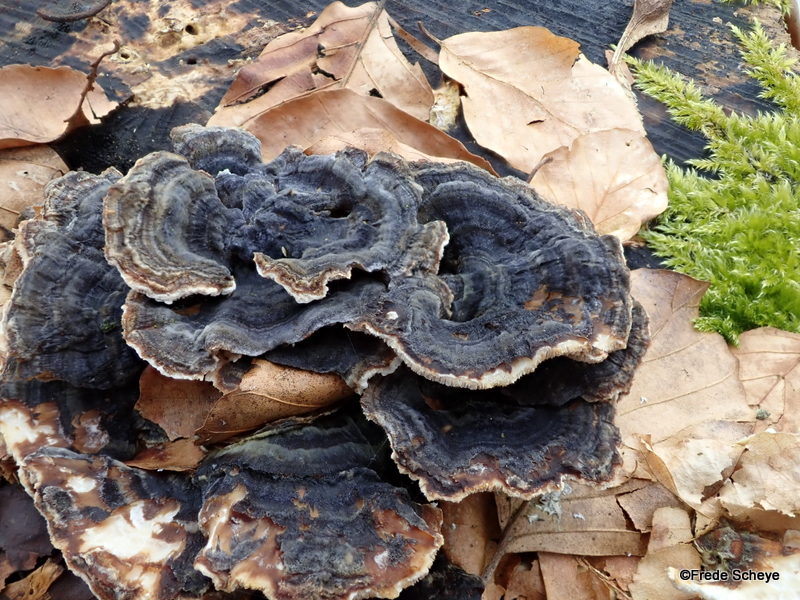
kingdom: Fungi
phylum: Basidiomycota
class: Agaricomycetes
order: Polyporales
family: Polyporaceae
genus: Trametes
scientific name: Trametes versicolor
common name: broget læderporesvamp
